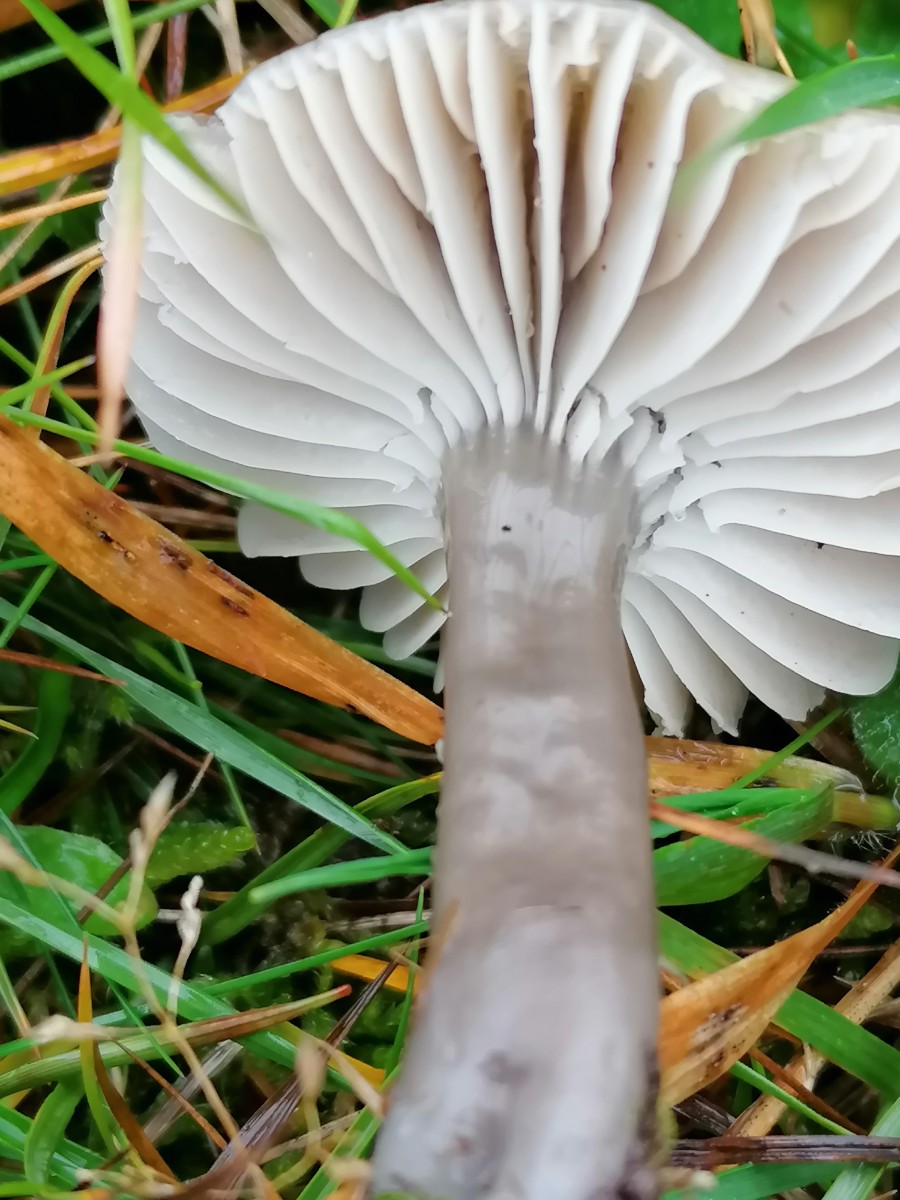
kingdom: Fungi
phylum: Basidiomycota
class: Agaricomycetes
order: Agaricales
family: Hygrophoraceae
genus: Gliophorus
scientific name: Gliophorus irrigatus
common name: slimet vokshat
